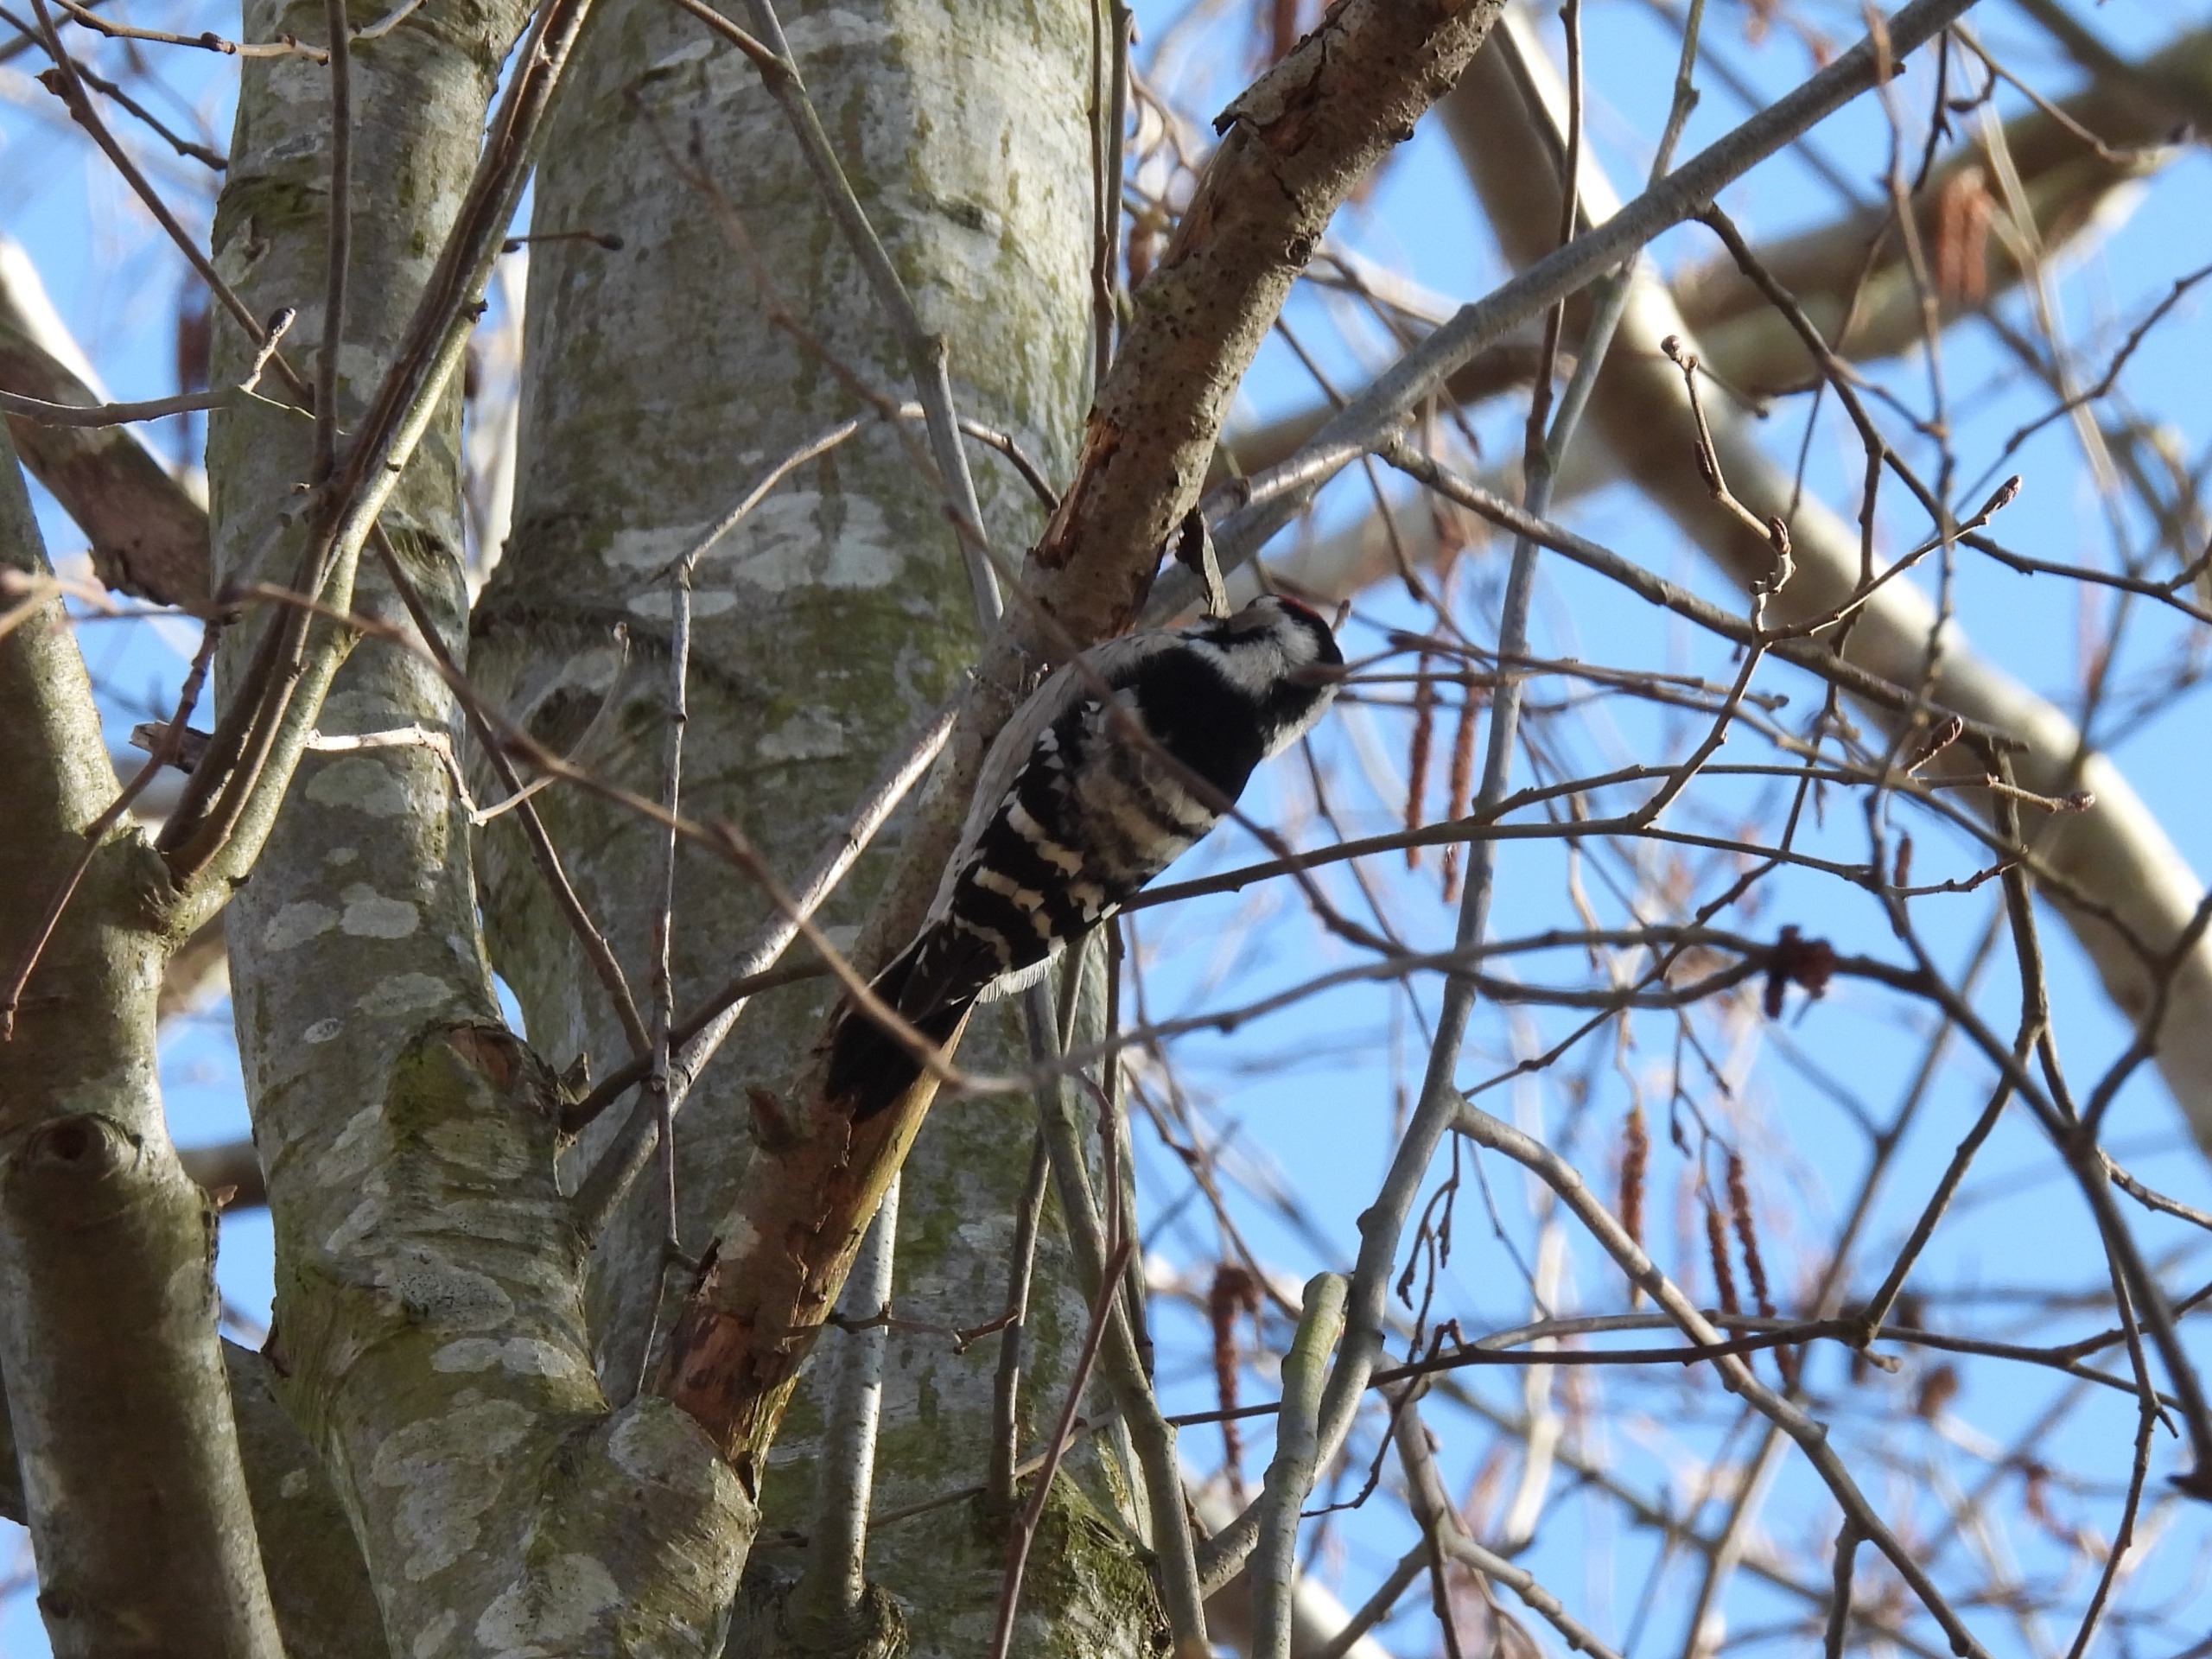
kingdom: Animalia
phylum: Chordata
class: Aves
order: Piciformes
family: Picidae
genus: Dryobates
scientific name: Dryobates minor
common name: Lille flagspætte
